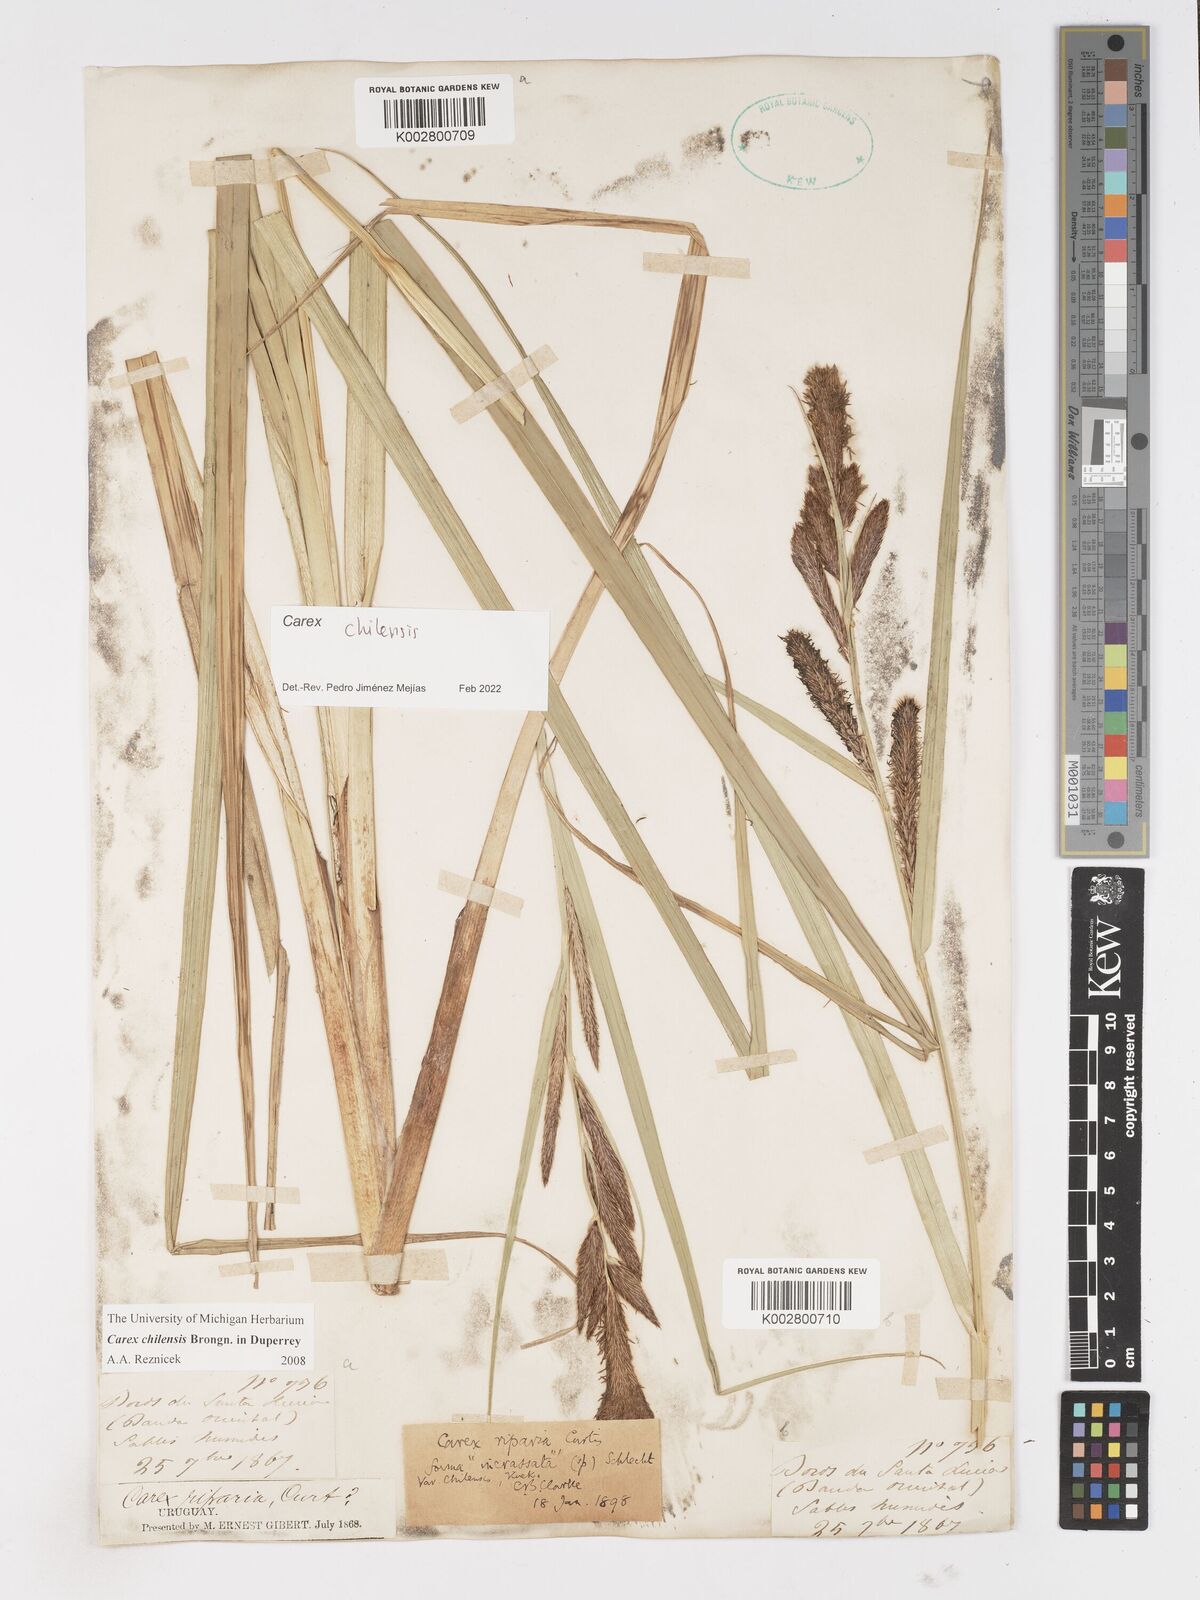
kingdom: Plantae
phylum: Tracheophyta
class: Liliopsida
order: Poales
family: Cyperaceae
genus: Carex
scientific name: Carex chilensis
